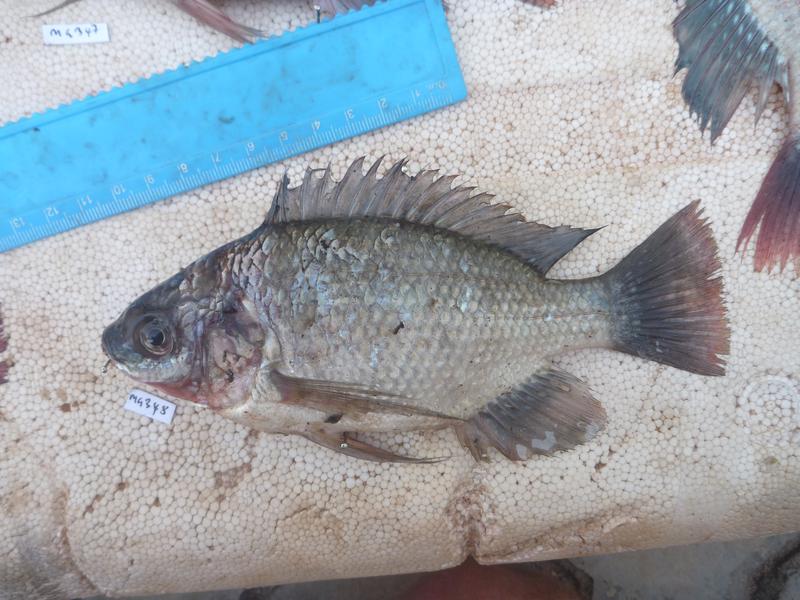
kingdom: Animalia
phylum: Chordata
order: Perciformes
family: Cichlidae
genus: Oreochromis
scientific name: Oreochromis esculentus
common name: Carp
